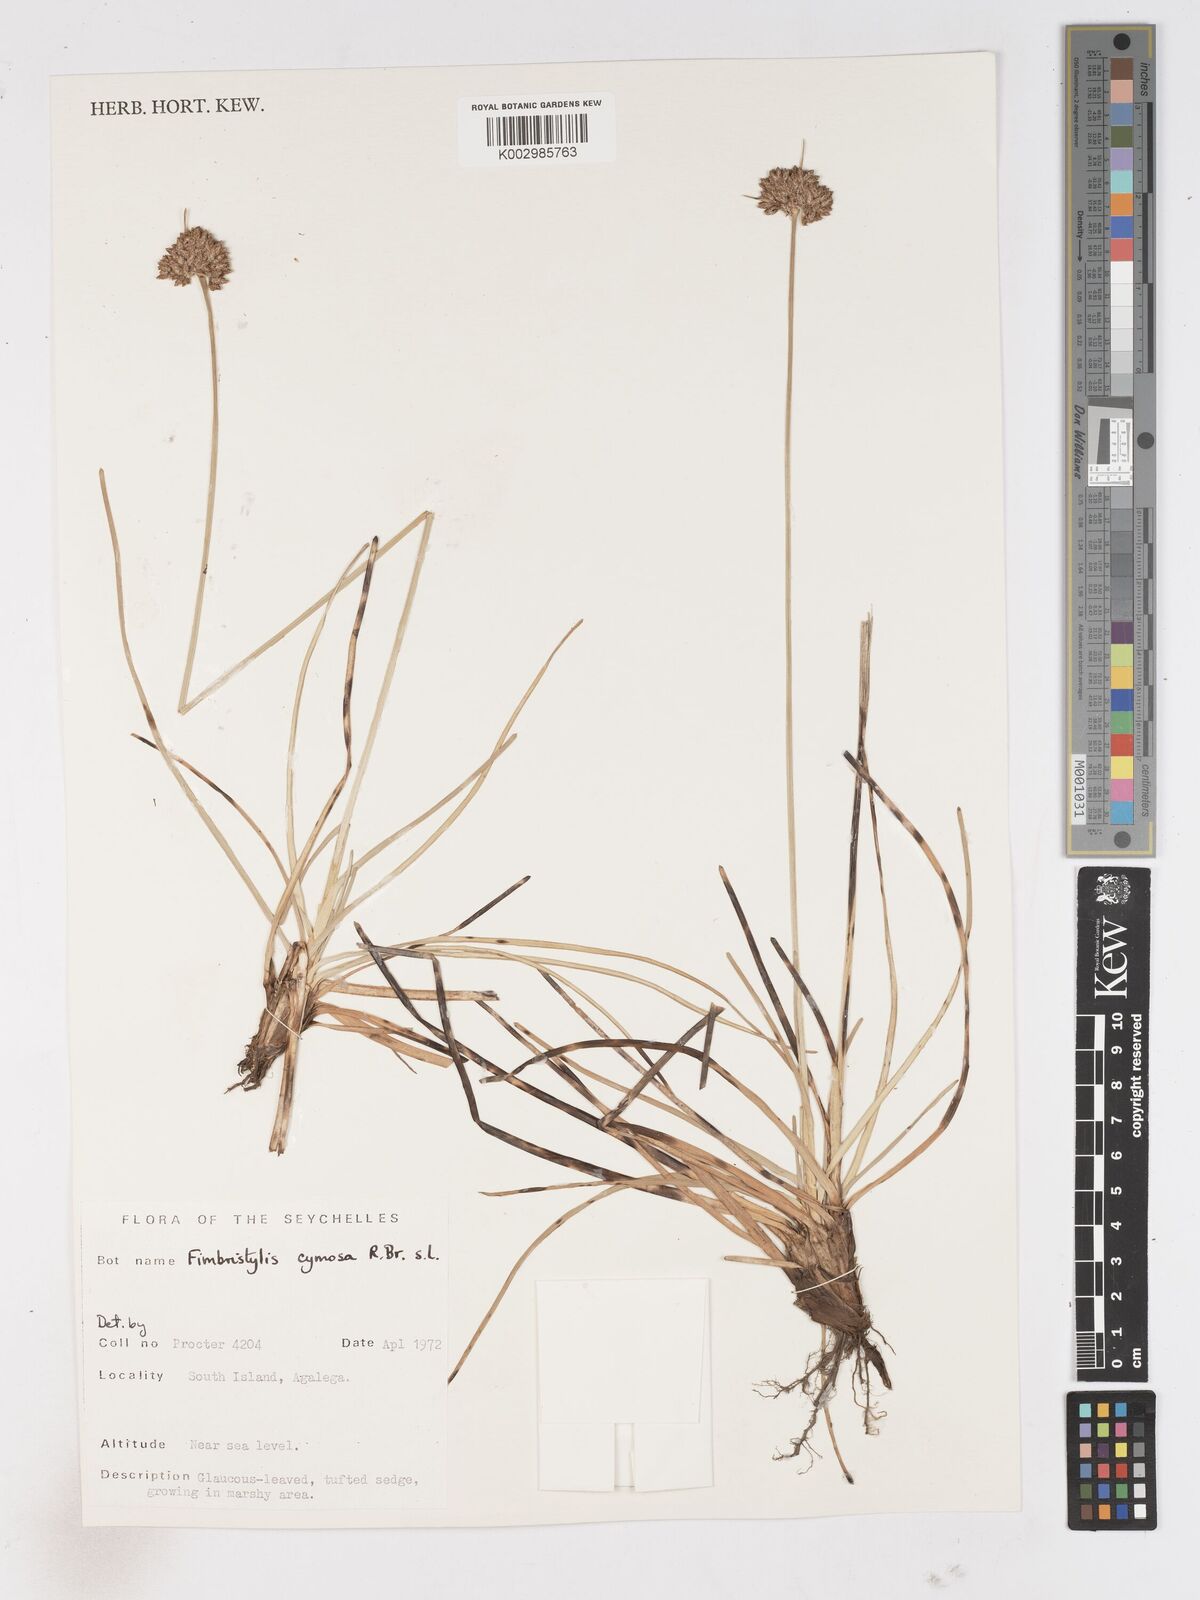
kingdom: Plantae
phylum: Tracheophyta
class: Liliopsida
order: Poales
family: Cyperaceae
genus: Fimbristylis
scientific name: Fimbristylis cymosa
